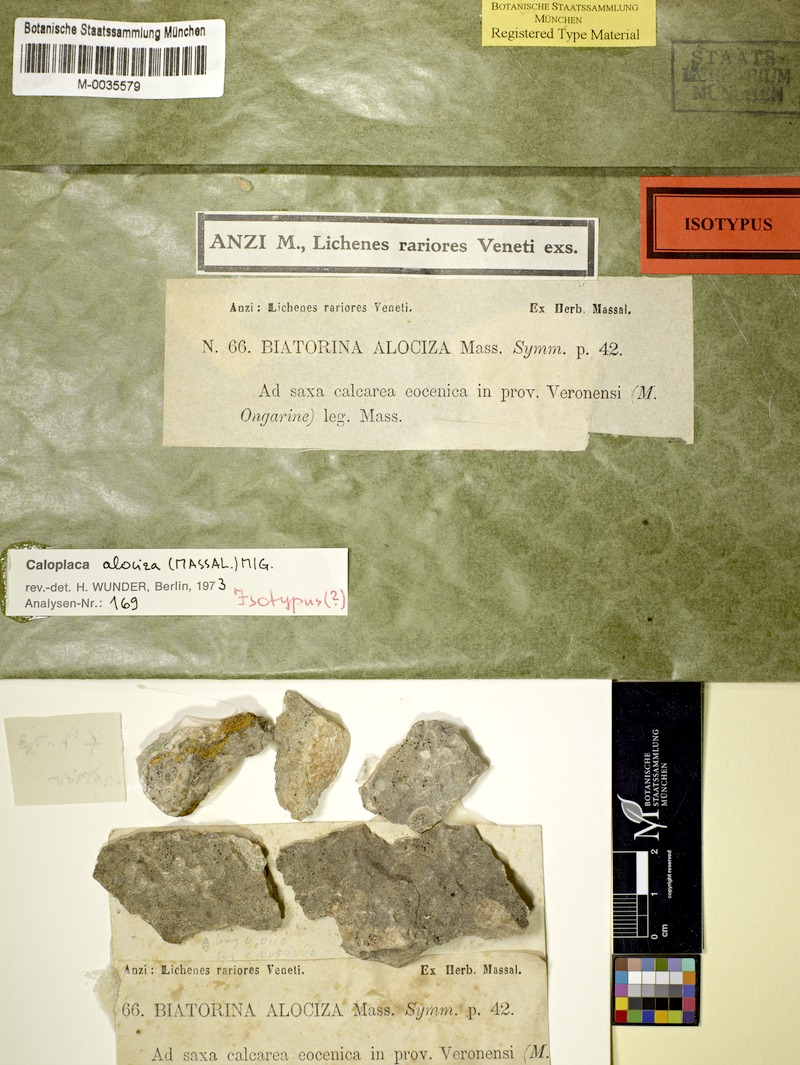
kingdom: Fungi
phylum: Ascomycota
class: Lecanoromycetes
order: Teloschistales
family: Teloschistaceae
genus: Pyrenodesmia
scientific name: Pyrenodesmia alociza
